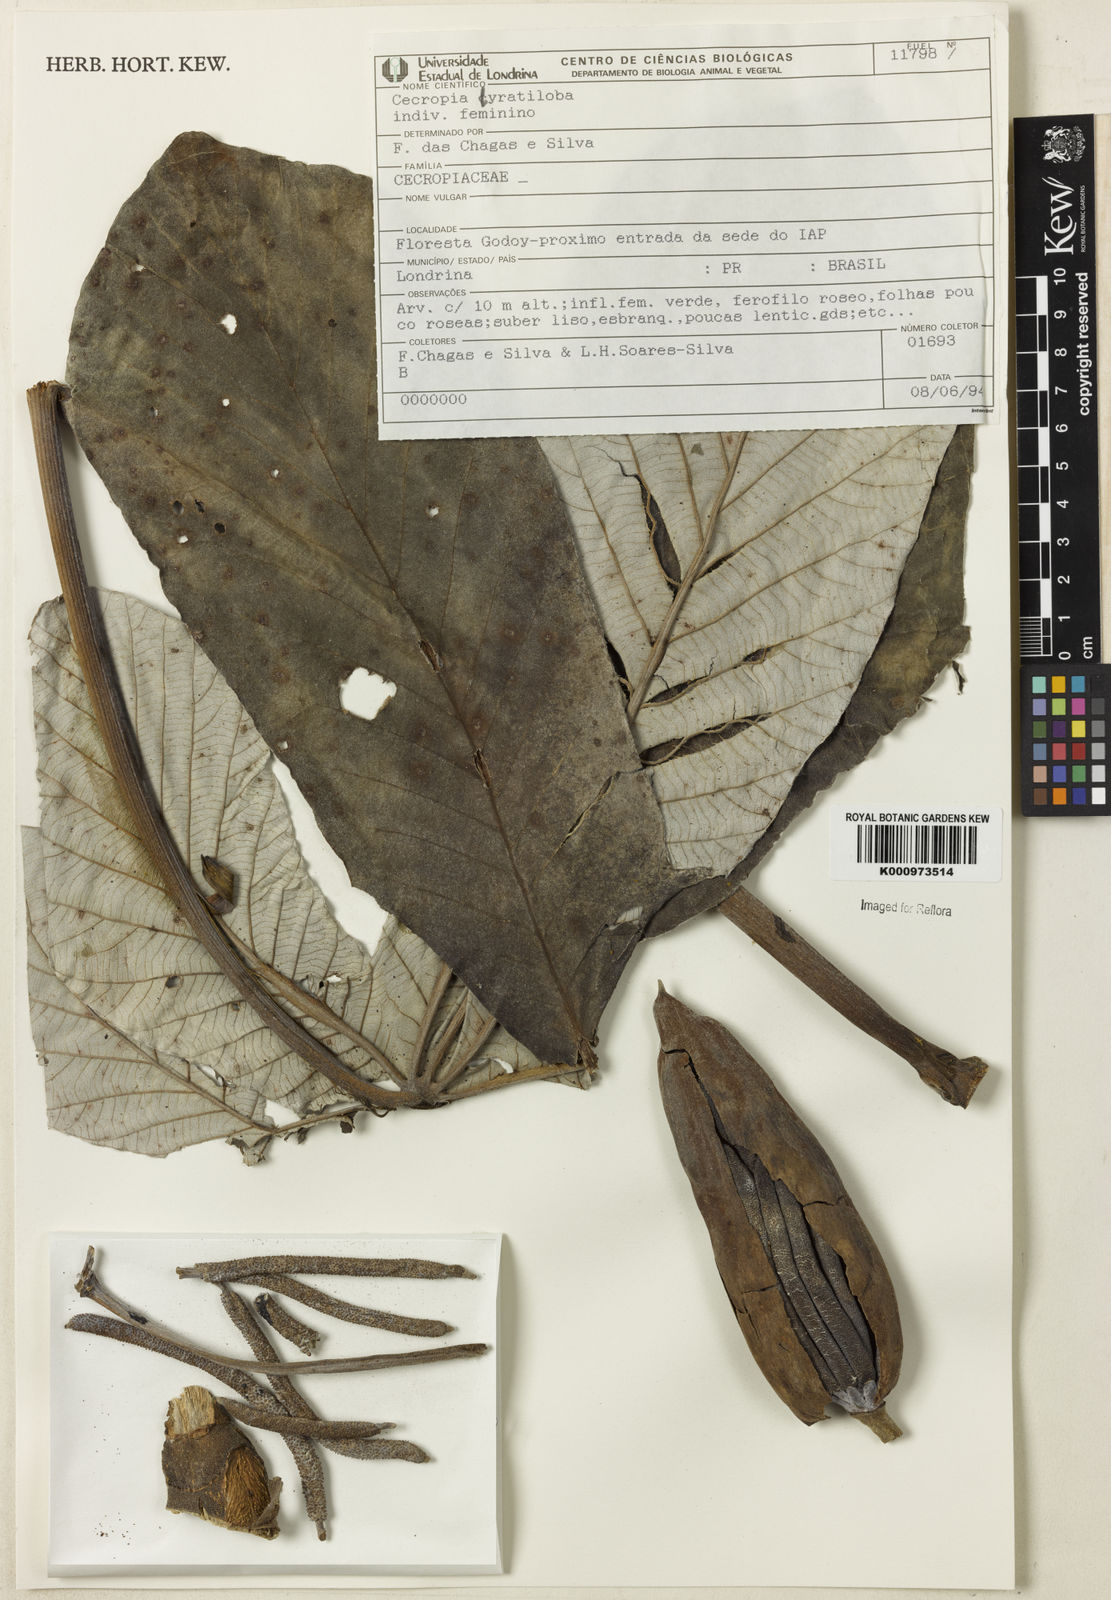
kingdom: Plantae
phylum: Tracheophyta
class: Magnoliopsida
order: Rosales
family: Urticaceae
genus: Cecropia
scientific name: Cecropia pachystachya
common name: Ambay pumpwood
